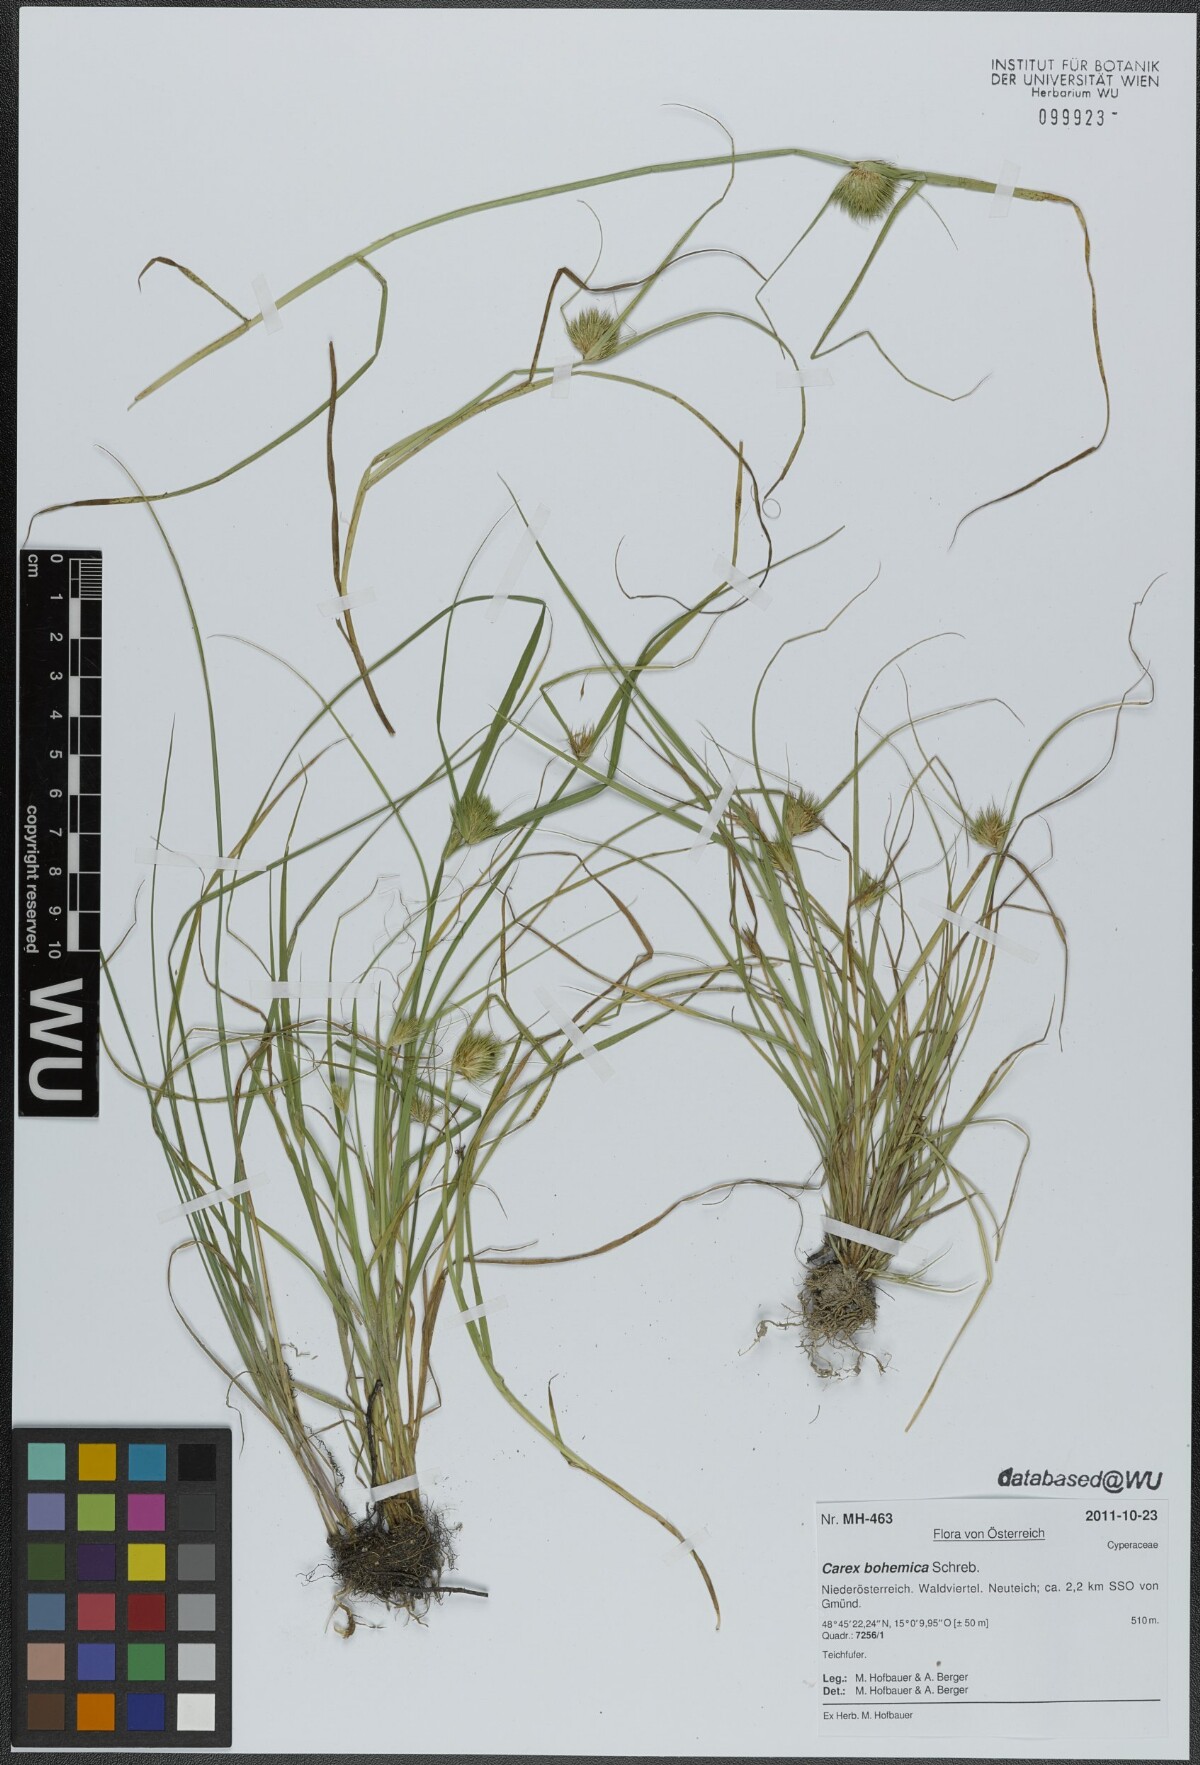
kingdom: Plantae
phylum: Tracheophyta
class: Liliopsida
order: Poales
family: Cyperaceae
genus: Carex
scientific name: Carex bohemica
